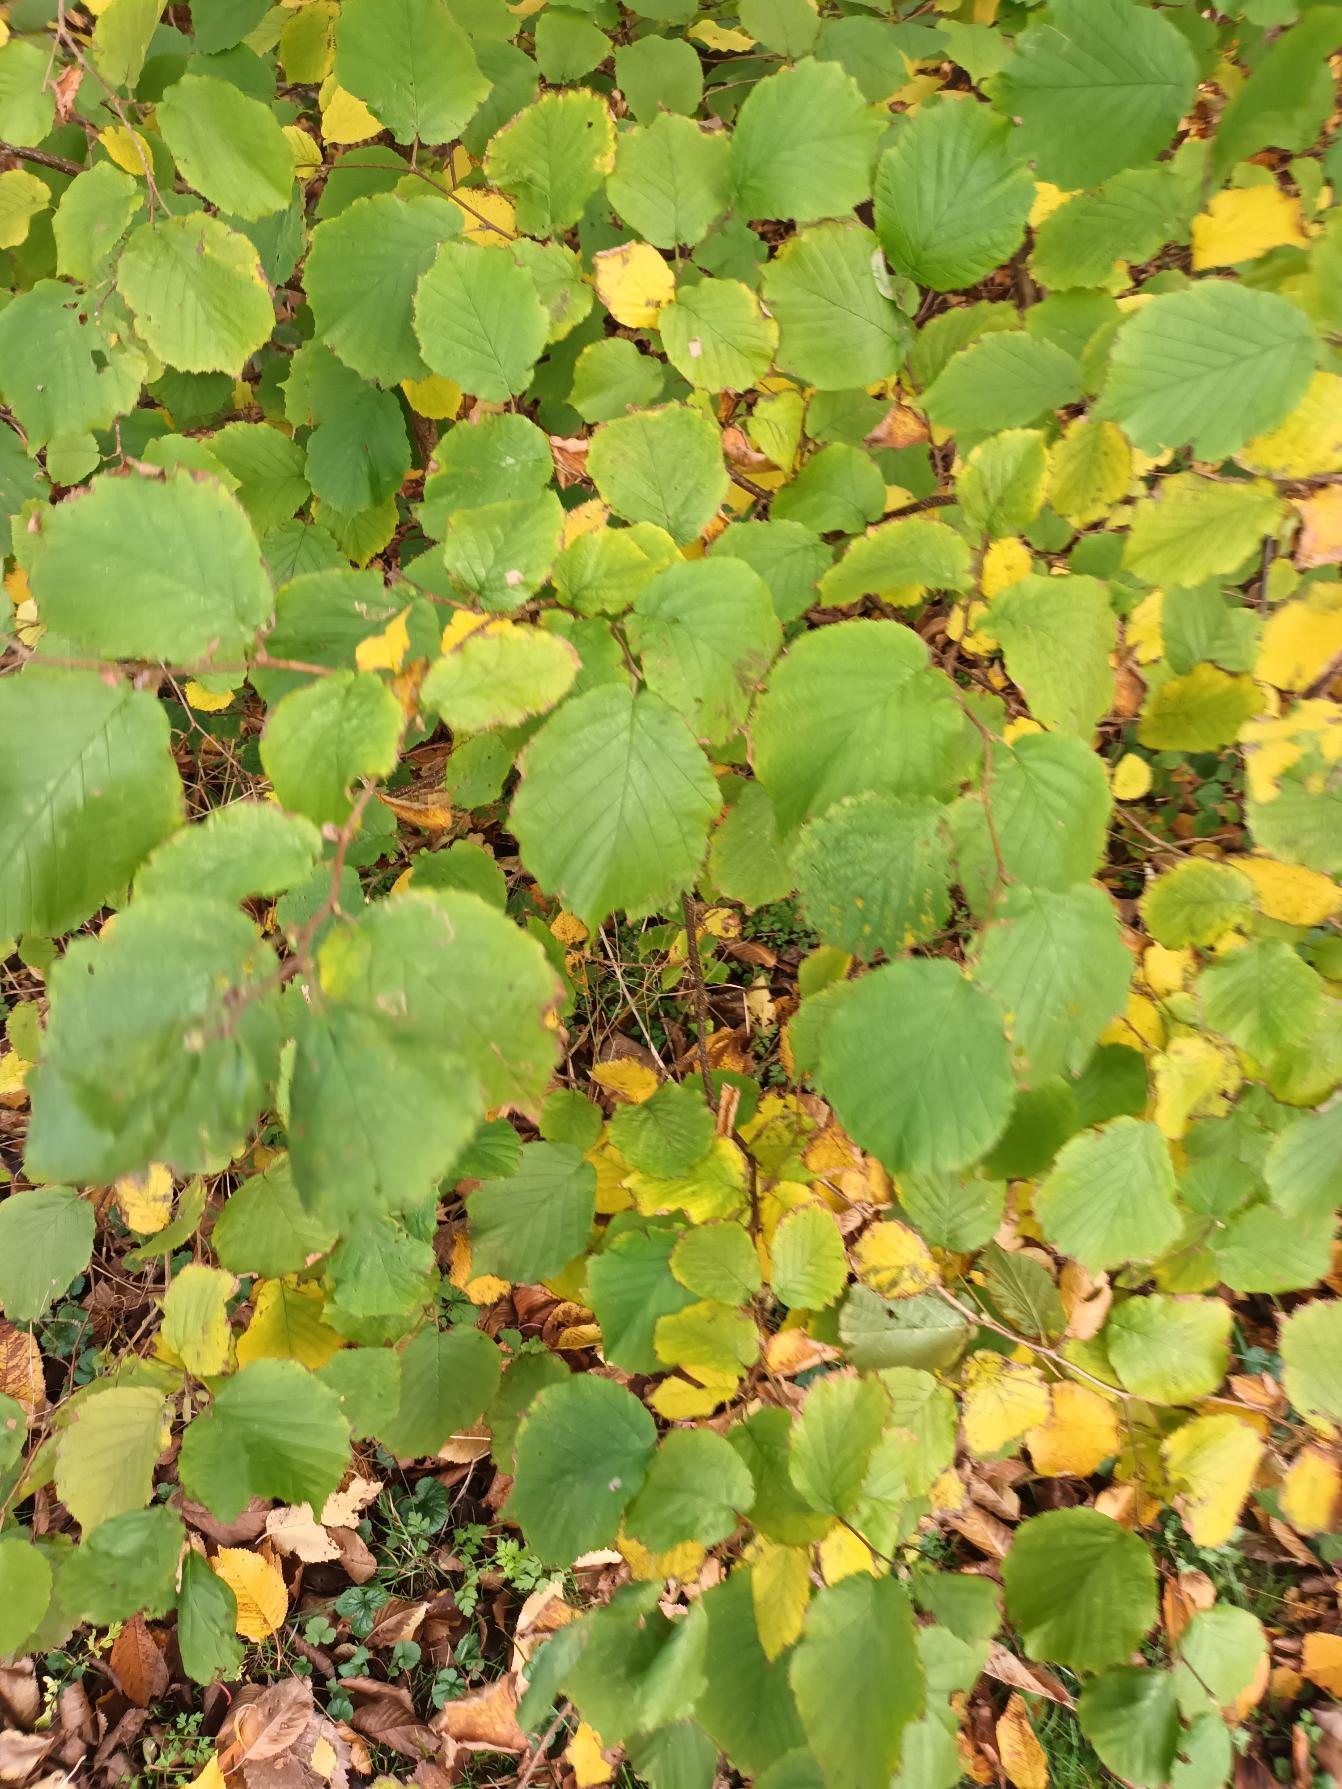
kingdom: Plantae
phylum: Tracheophyta
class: Magnoliopsida
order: Fagales
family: Betulaceae
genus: Corylus
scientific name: Corylus avellana
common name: Hassel
